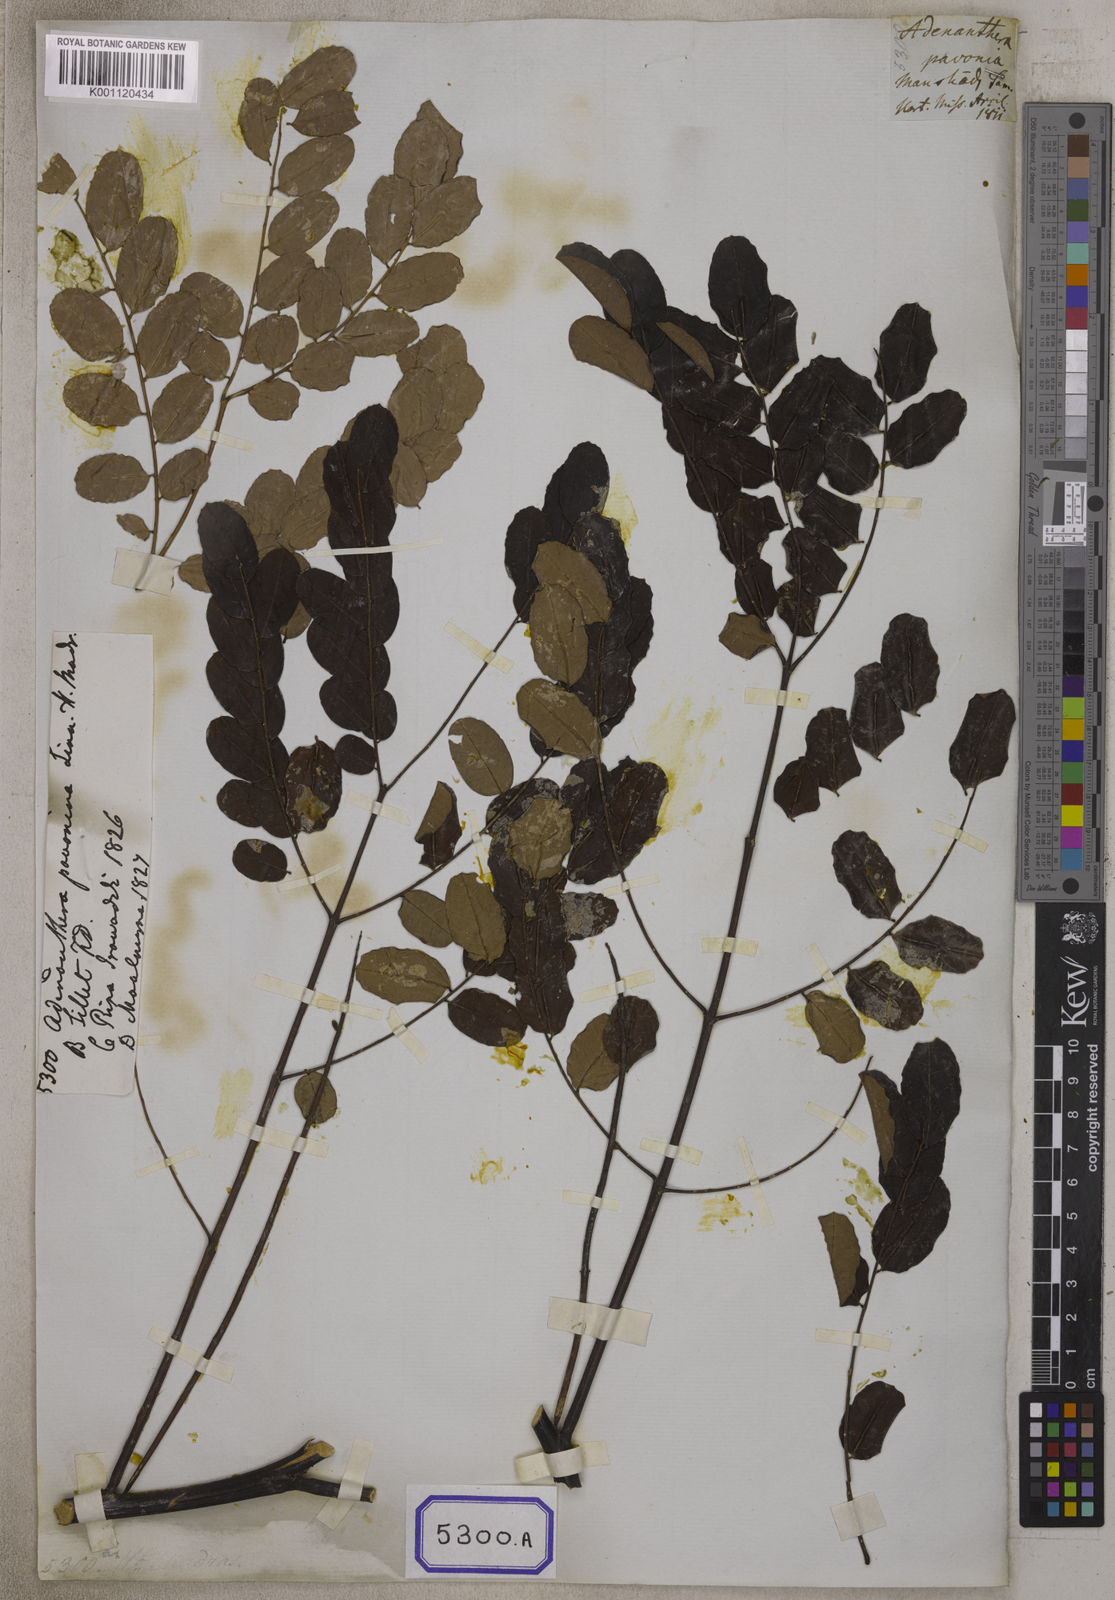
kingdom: Plantae
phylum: Tracheophyta
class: Magnoliopsida
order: Fabales
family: Fabaceae
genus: Adenanthera
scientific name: Adenanthera pavonina
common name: Red beadtree
